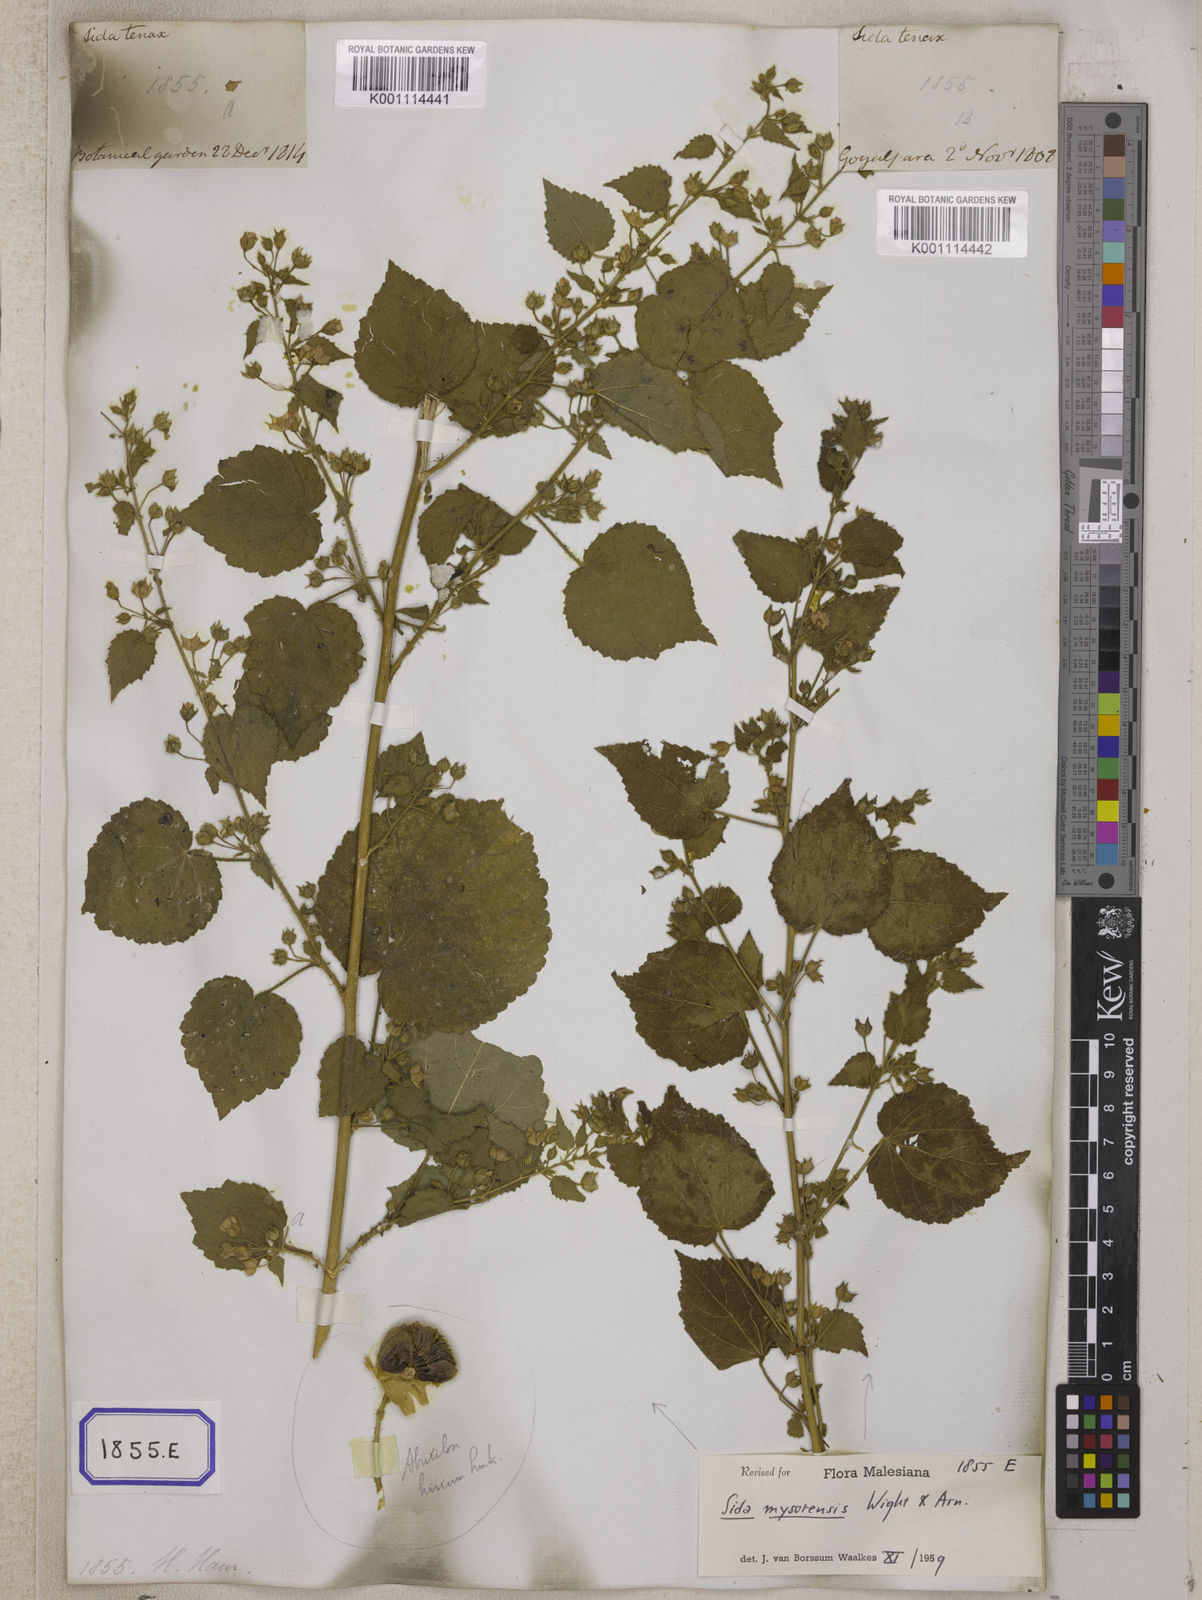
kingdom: Plantae
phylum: Tracheophyta
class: Magnoliopsida
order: Malvales
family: Malvaceae
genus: Abutilon
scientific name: Abutilon hirtum
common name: Florida keys indian mallow
